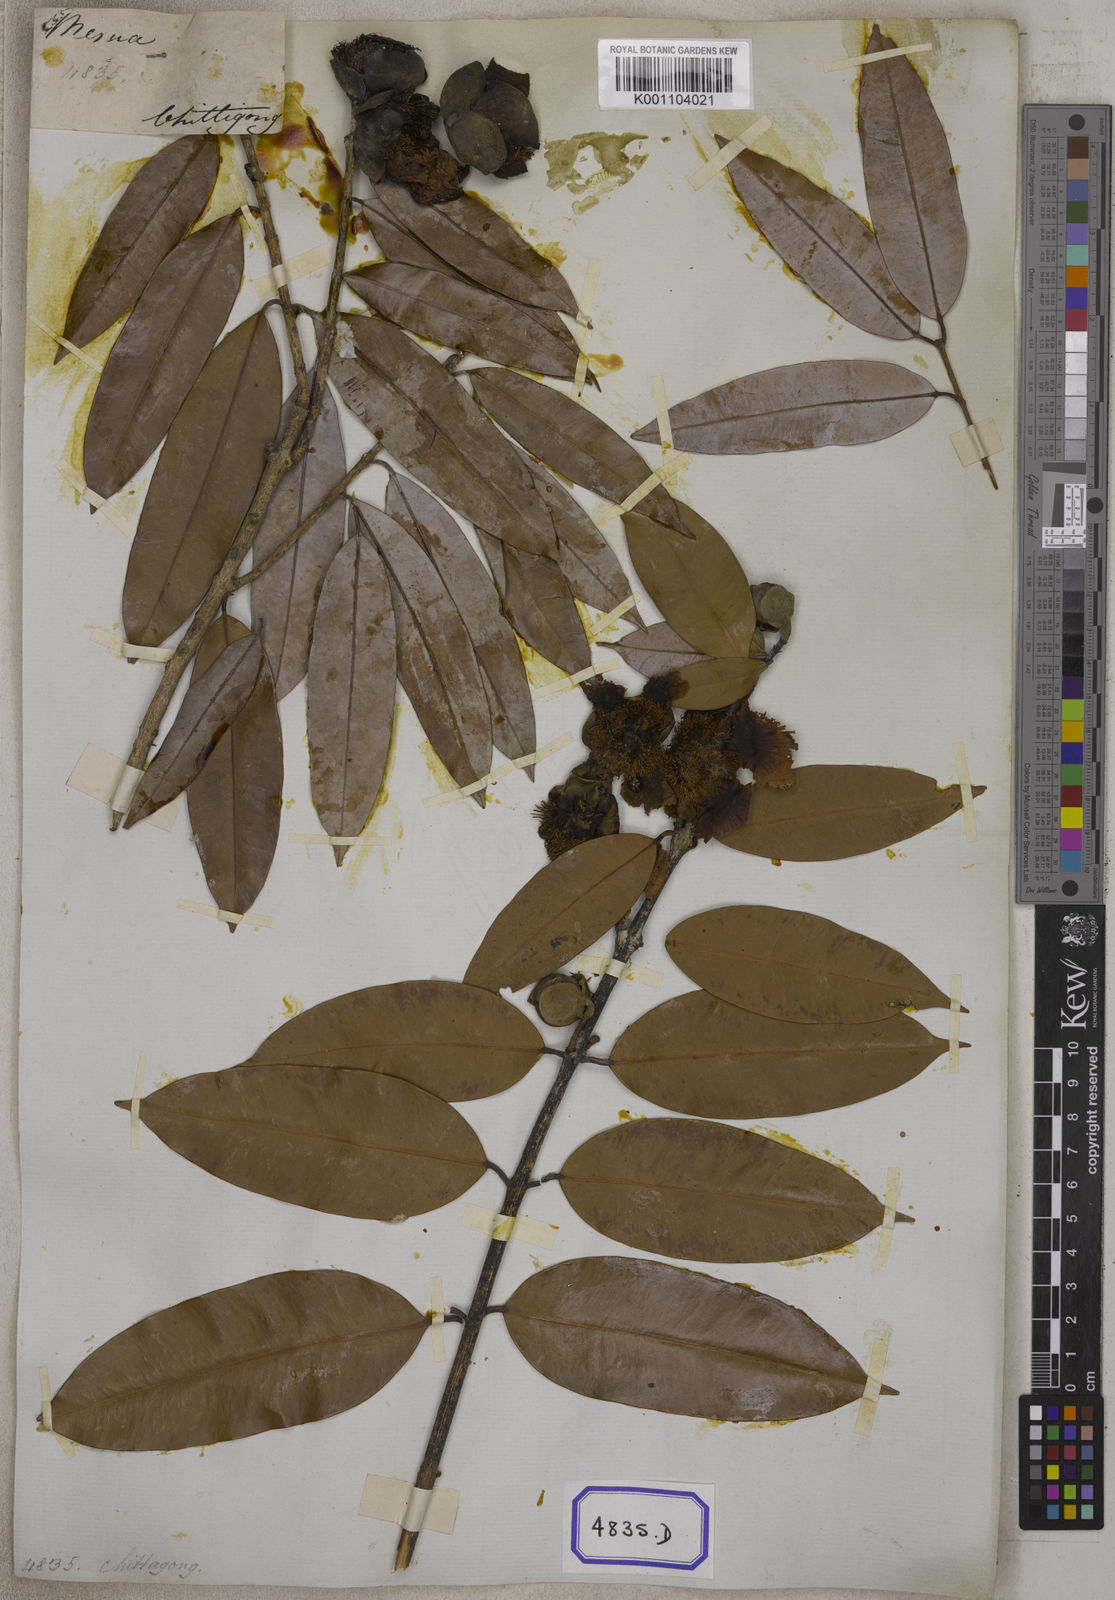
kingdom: Plantae
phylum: Tracheophyta
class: Magnoliopsida
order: Malpighiales
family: Calophyllaceae
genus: Mesua
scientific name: Mesua ferrea
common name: Mesua
